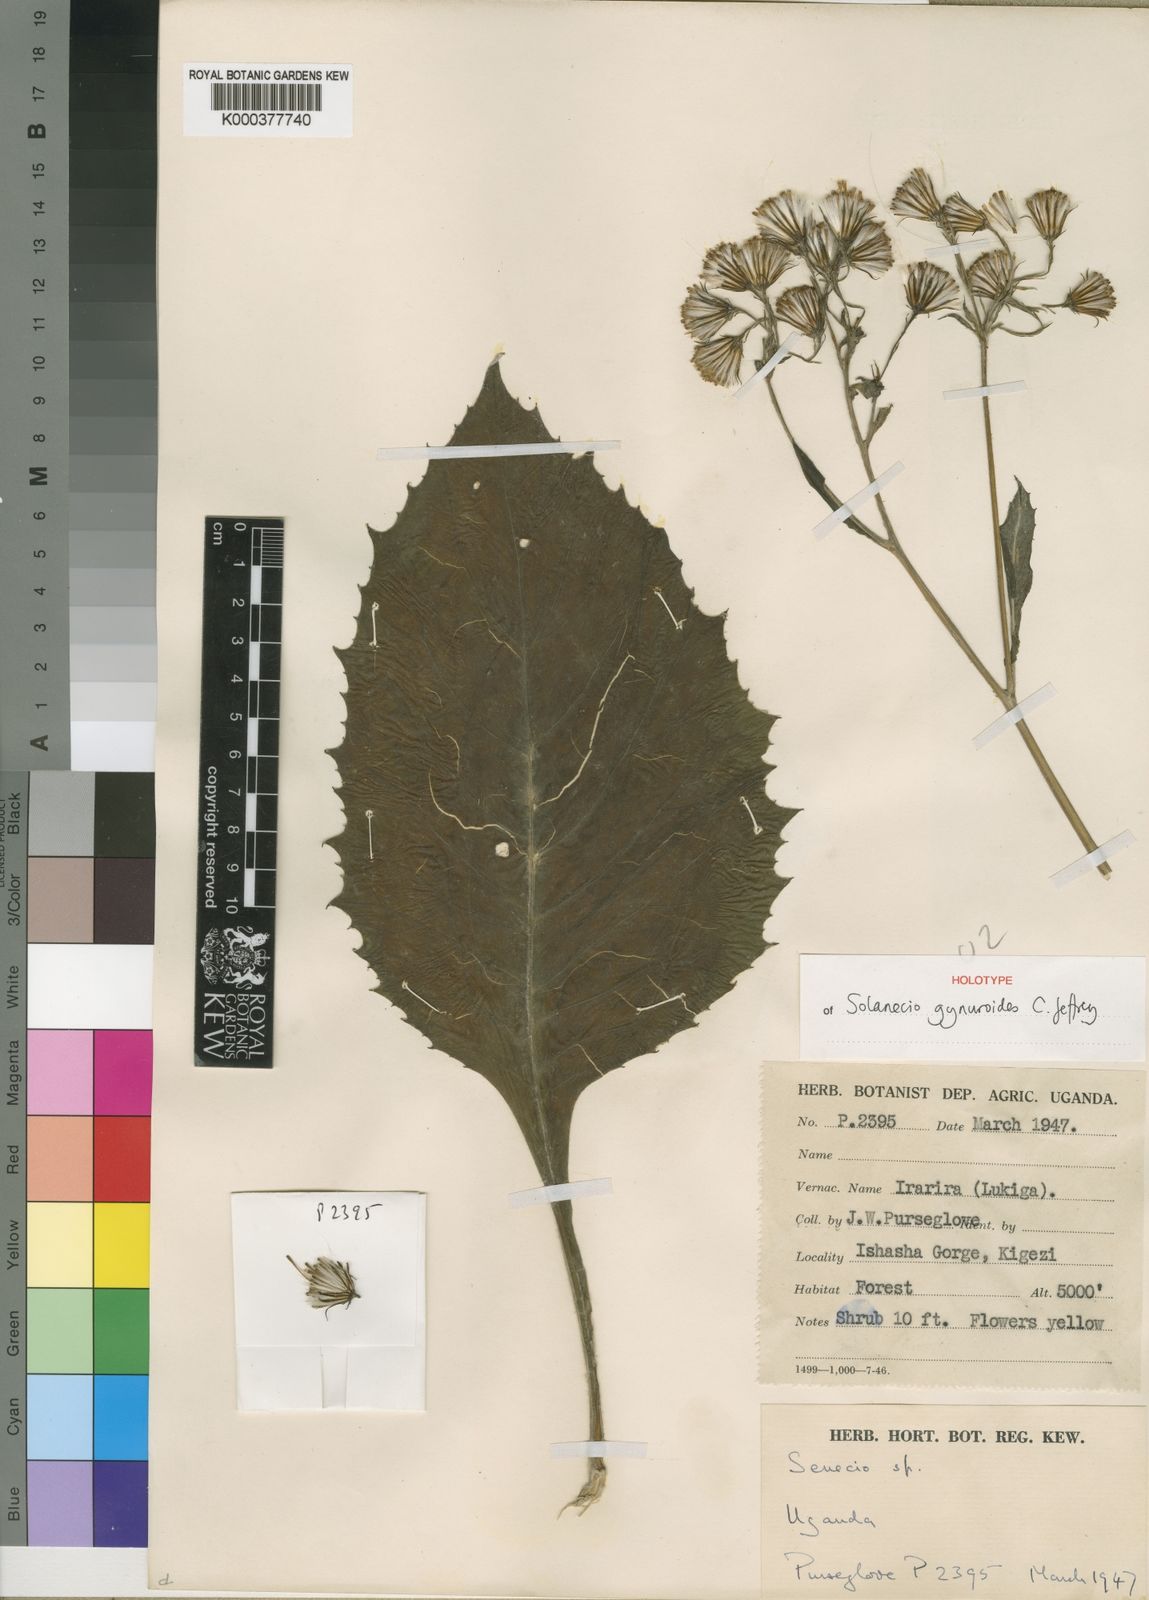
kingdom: Plantae
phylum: Tracheophyta
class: Magnoliopsida
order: Asterales
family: Asteraceae
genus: Solanecio
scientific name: Solanecio gynuroides
